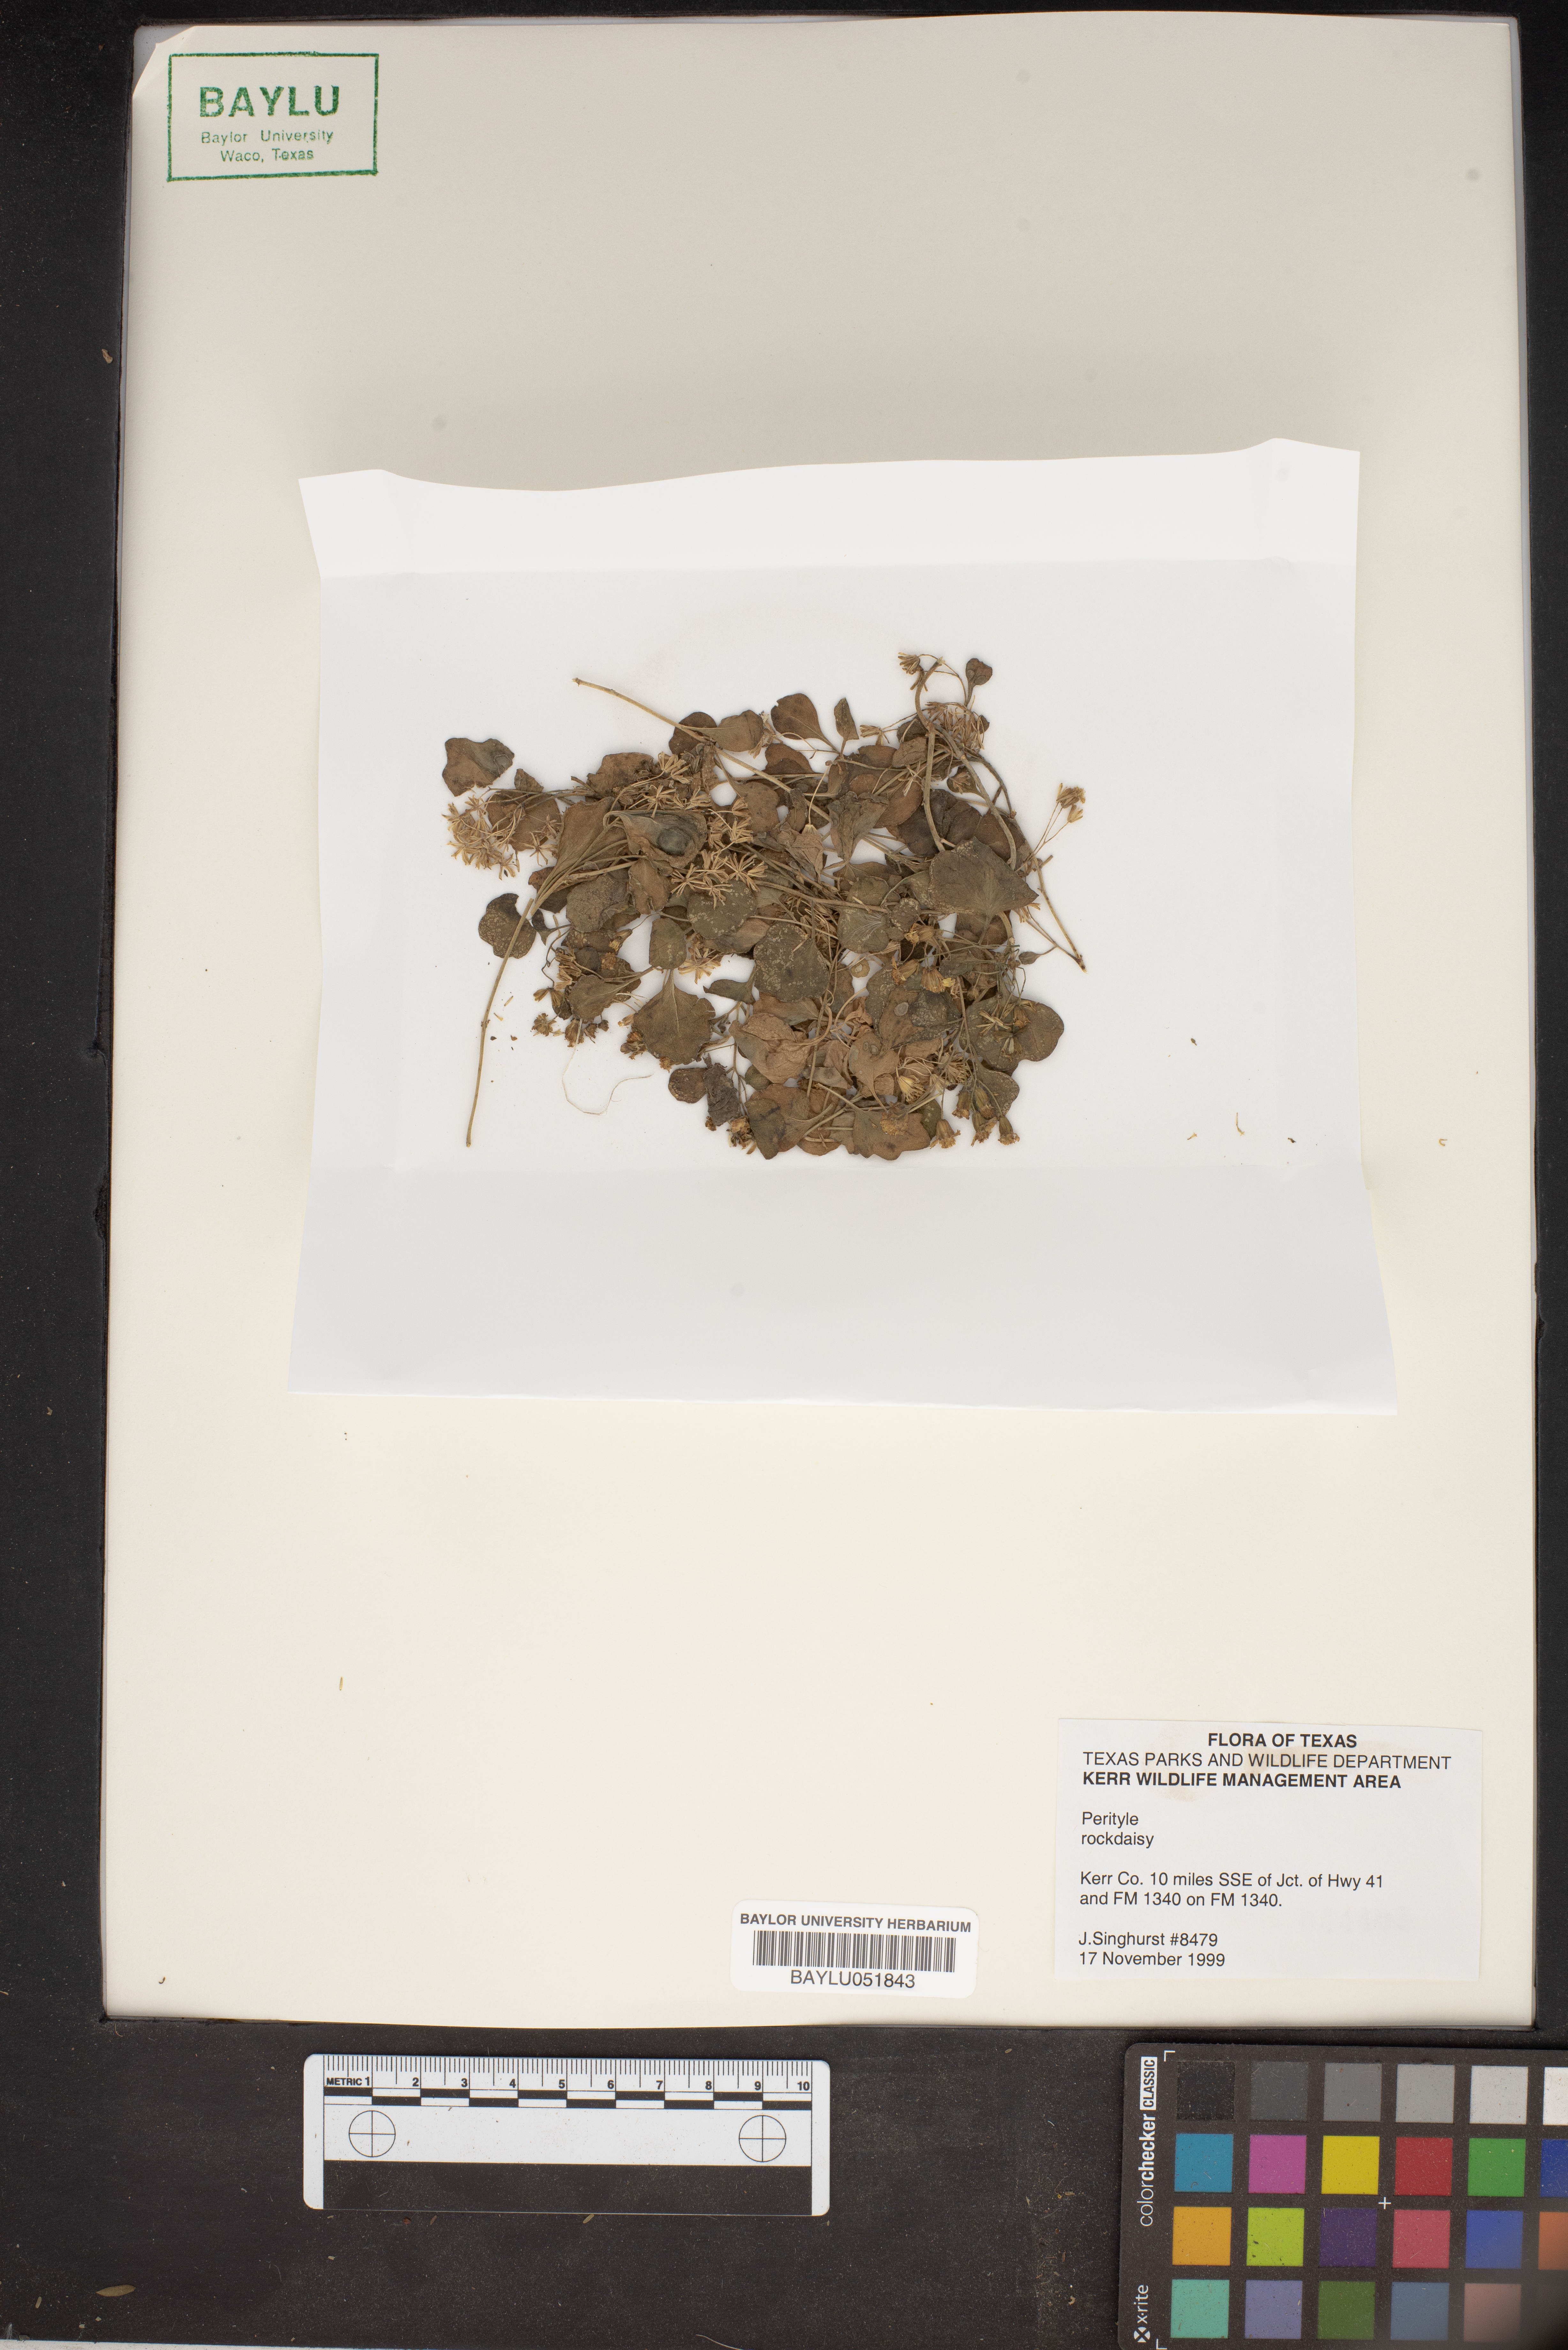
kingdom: Plantae
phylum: Tracheophyta
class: Magnoliopsida
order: Asterales
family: Asteraceae
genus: Perityle
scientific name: Perityle
